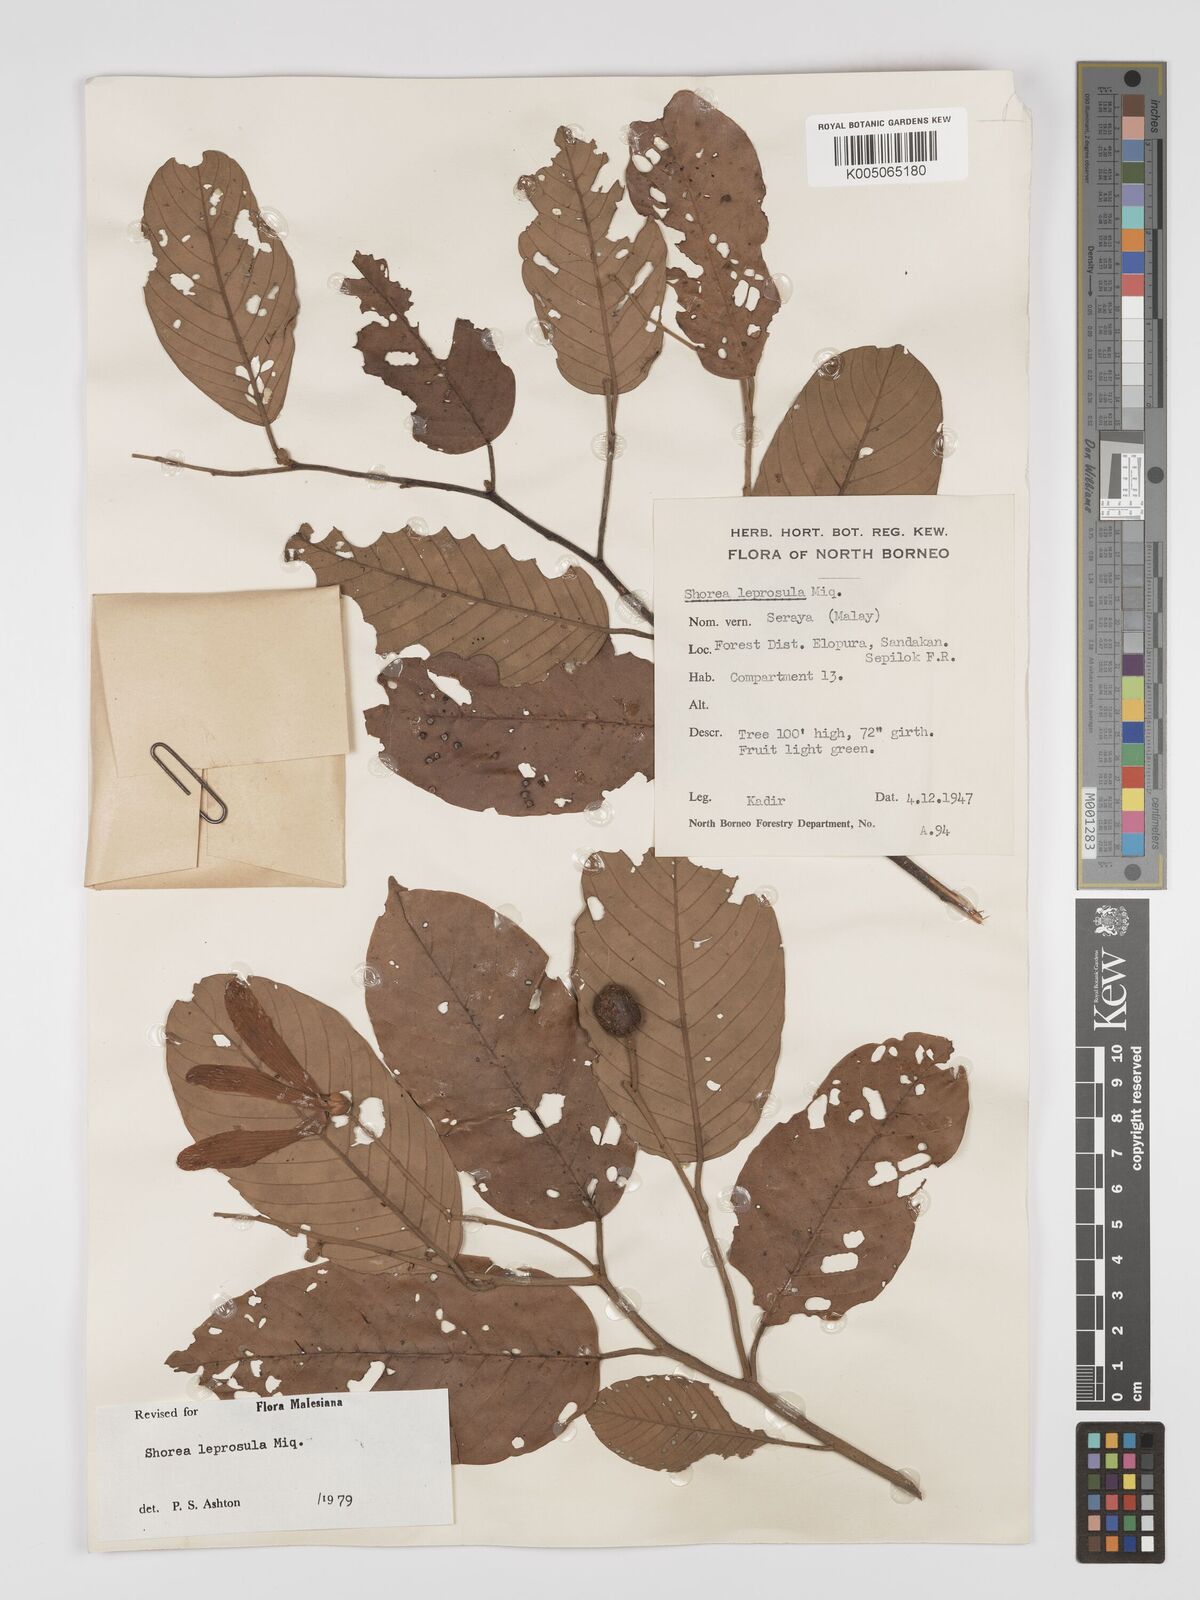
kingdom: Plantae
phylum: Tracheophyta
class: Magnoliopsida
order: Malvales
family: Dipterocarpaceae
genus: Shorea
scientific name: Shorea leprosula
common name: Light red meranti
